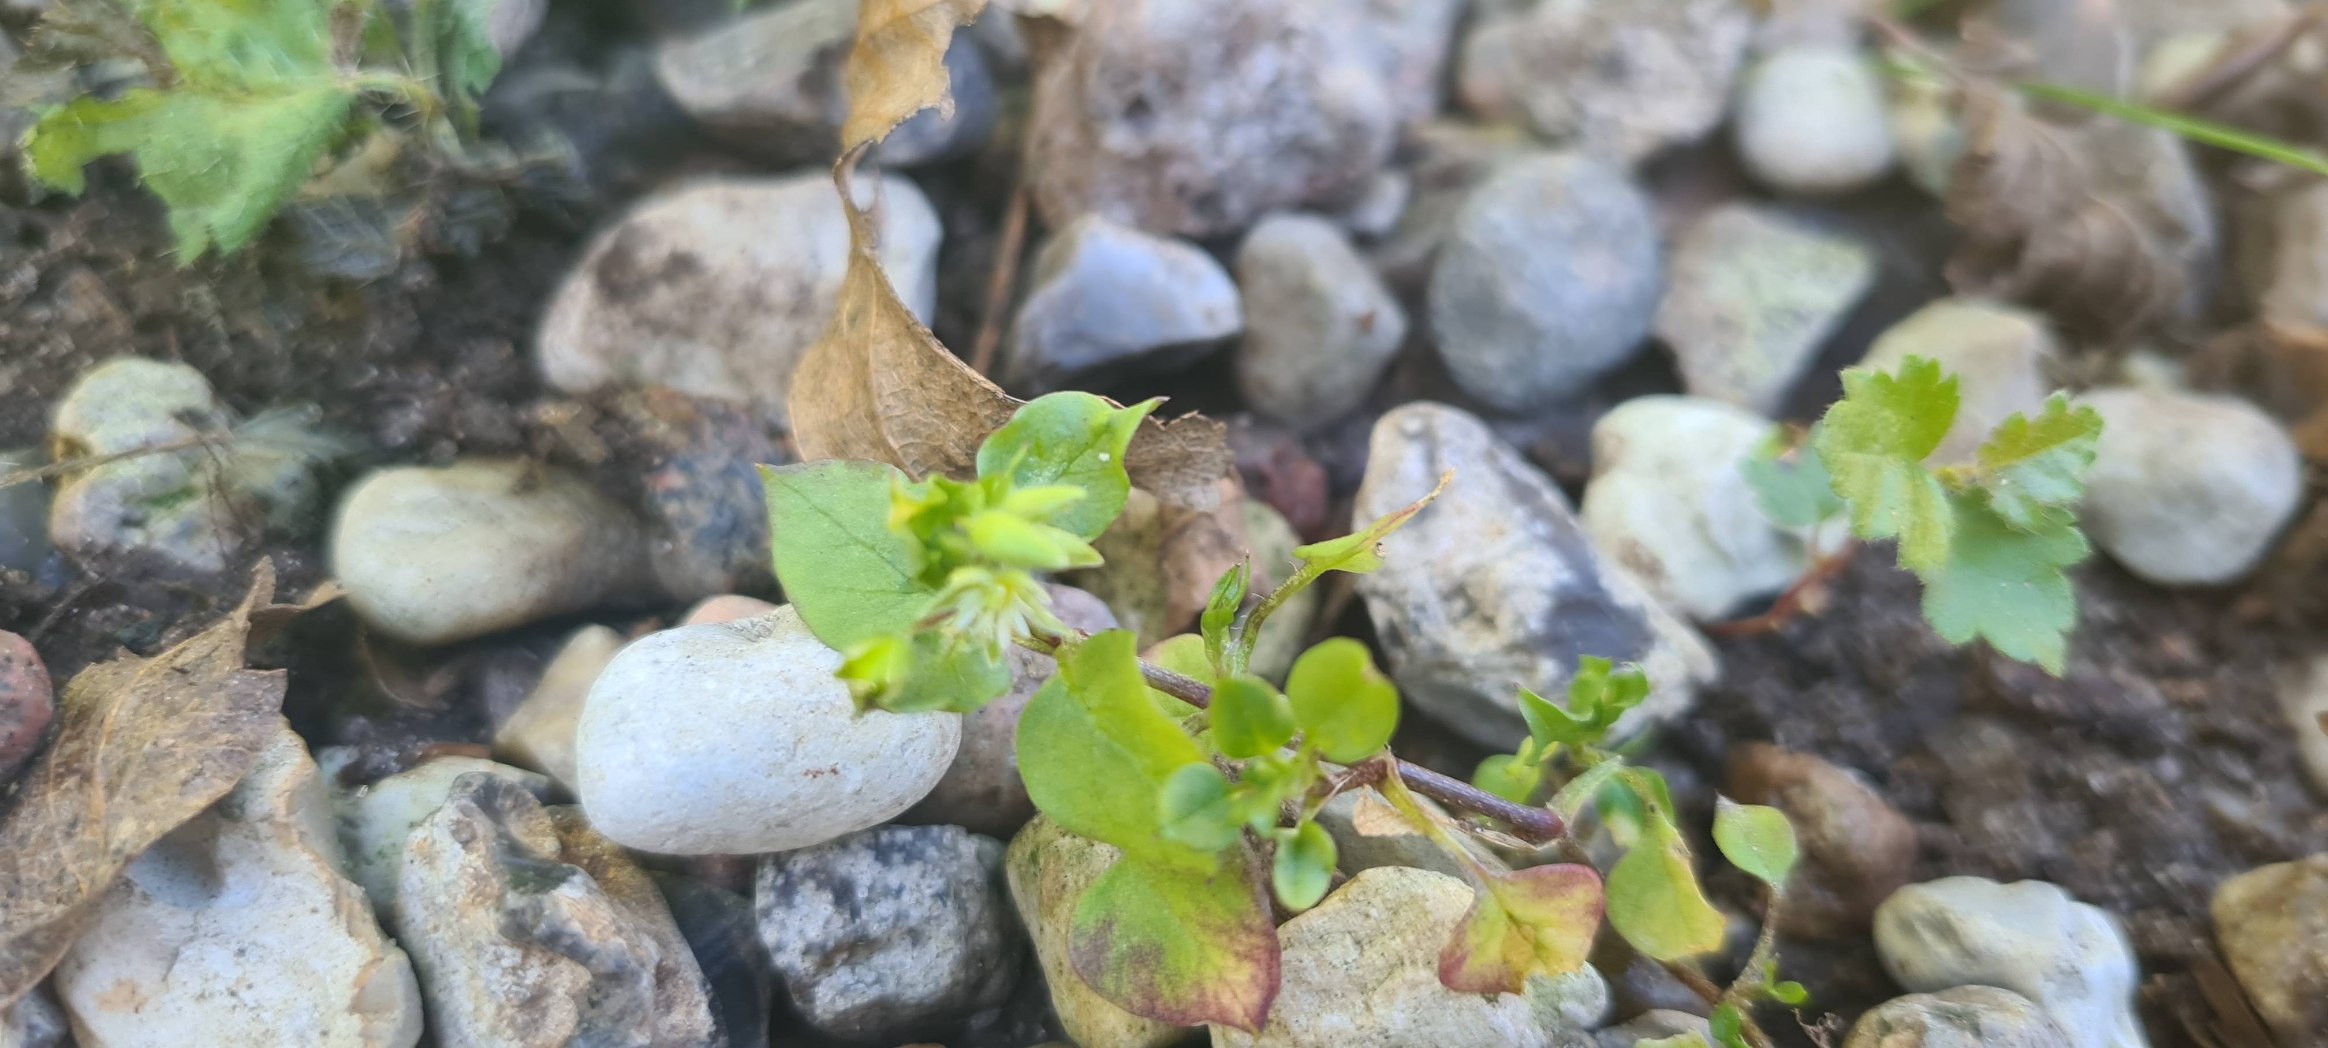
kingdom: Plantae
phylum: Tracheophyta
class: Magnoliopsida
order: Caryophyllales
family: Caryophyllaceae
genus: Stellaria
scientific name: Stellaria media
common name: Almindelig fuglegræs
